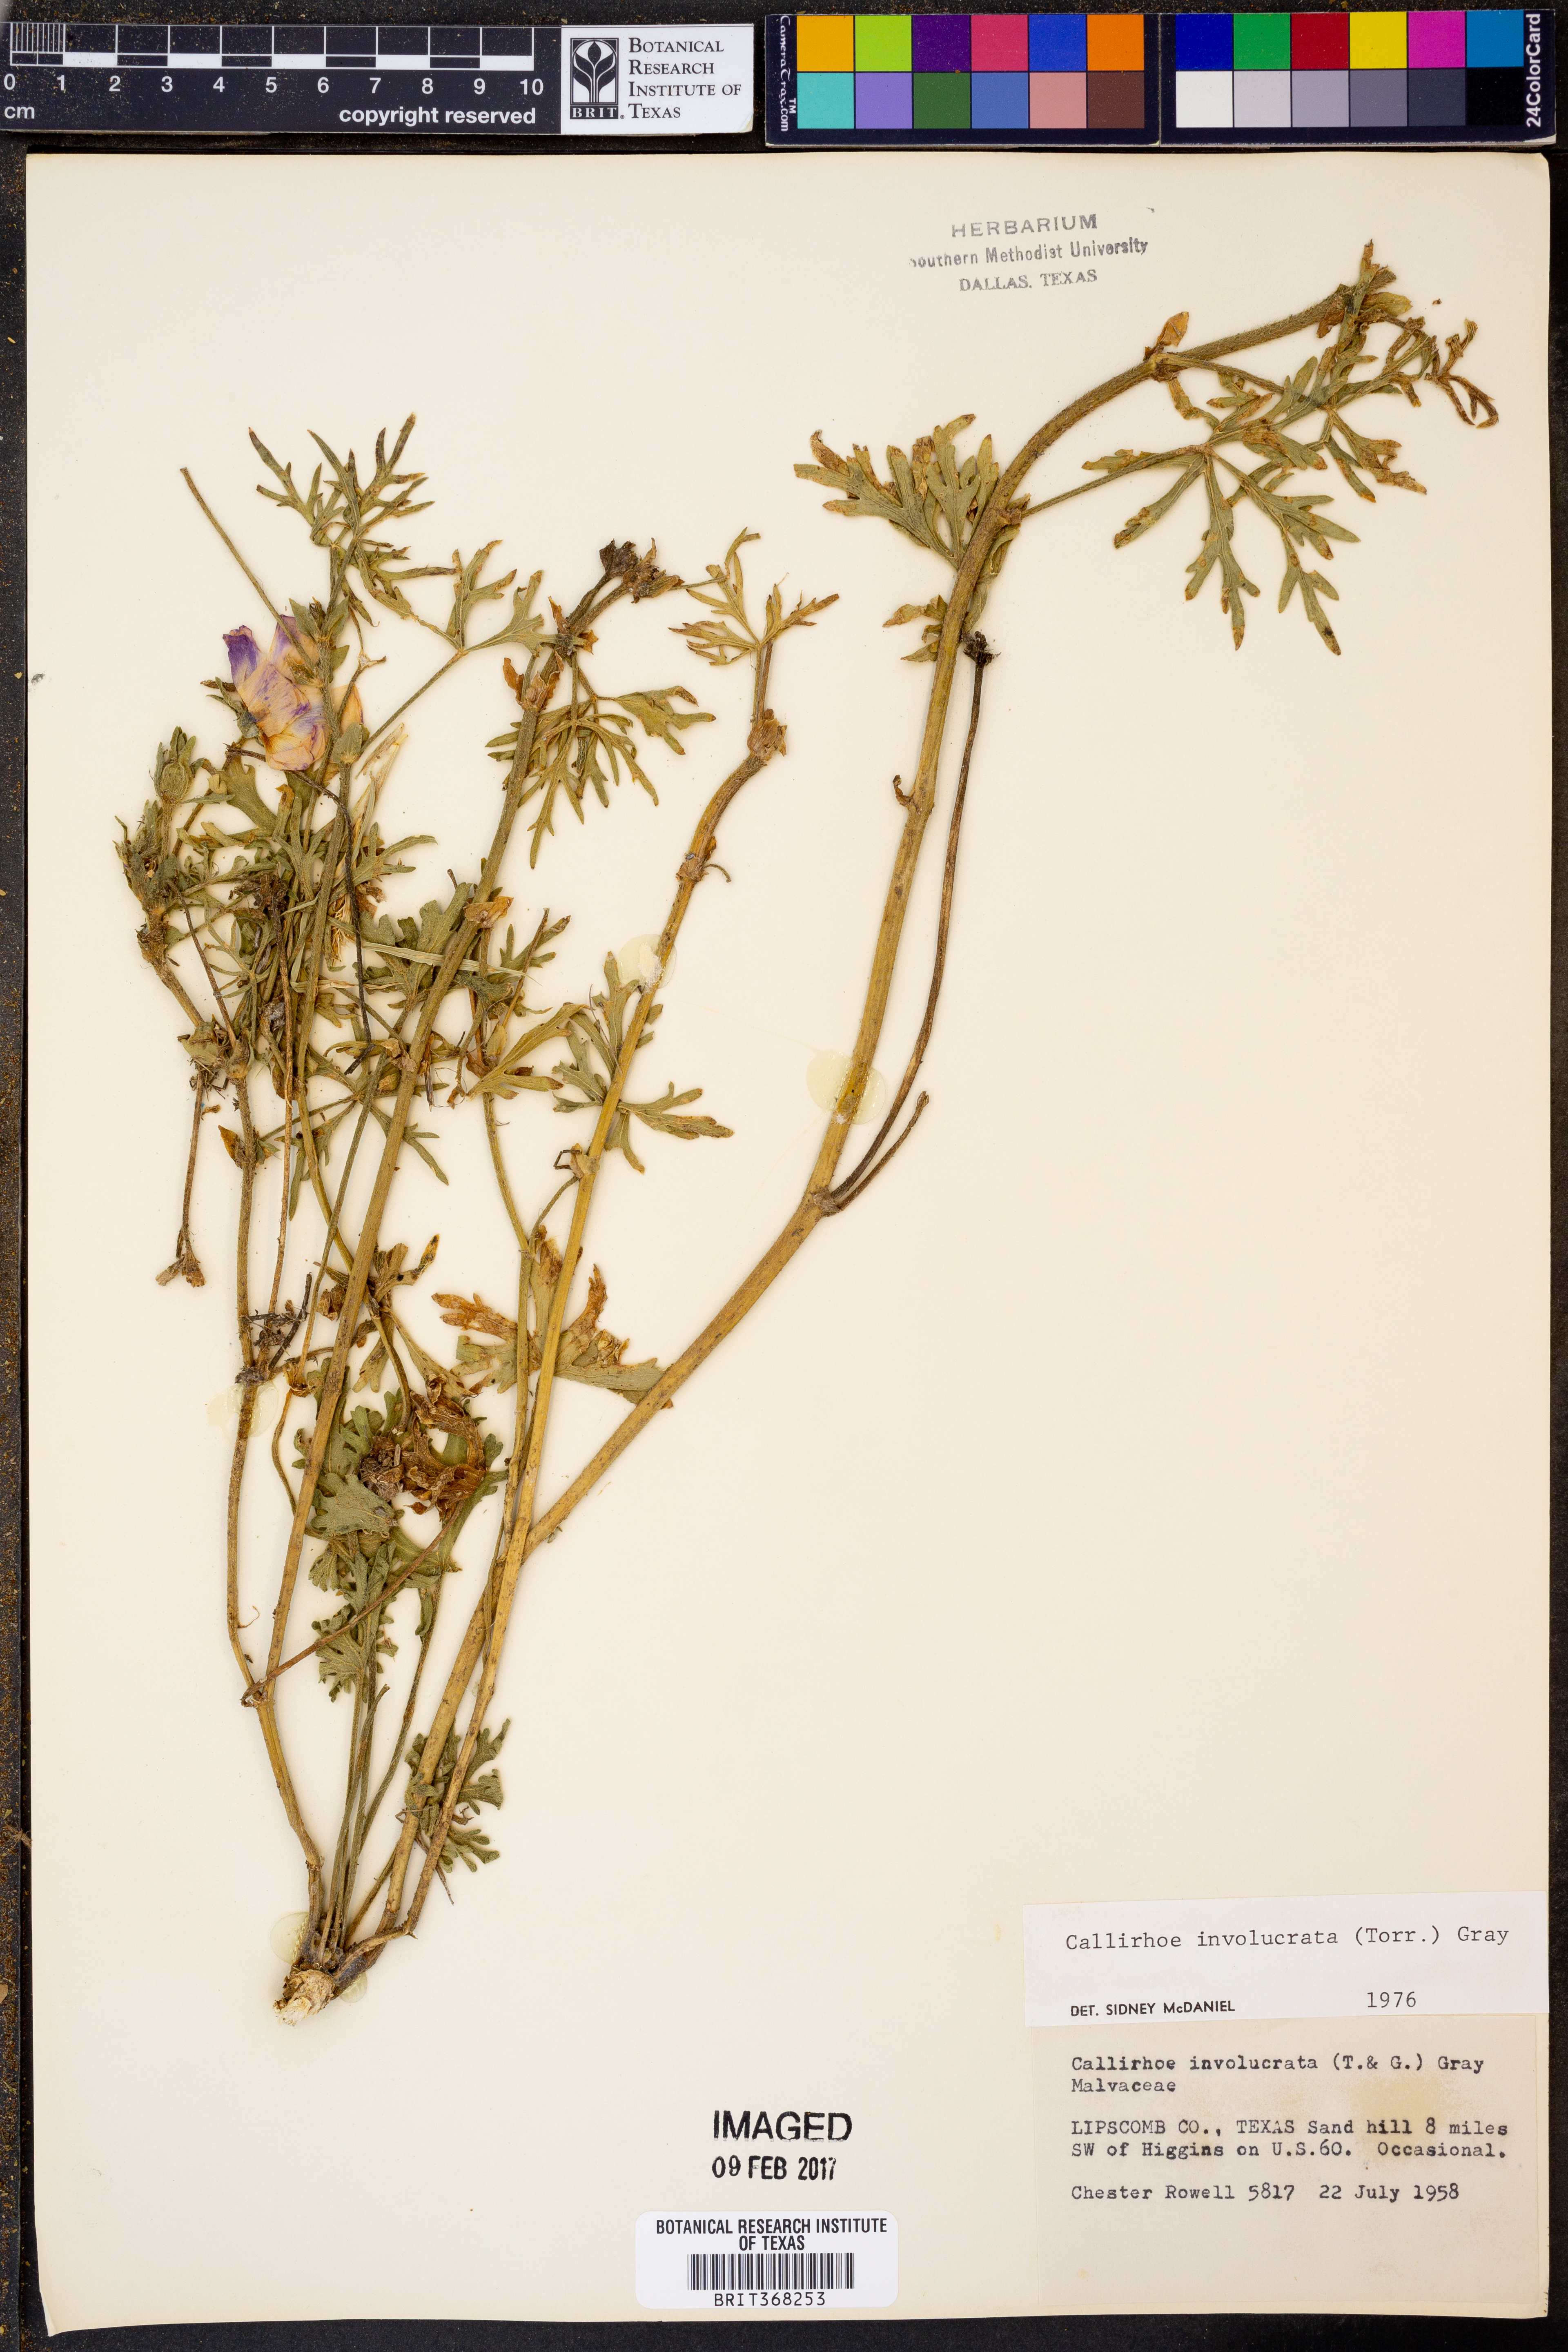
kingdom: Plantae
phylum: Tracheophyta
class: Magnoliopsida
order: Malvales
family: Malvaceae
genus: Callirhoe
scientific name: Callirhoe involucrata
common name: Purple poppy-mallow
